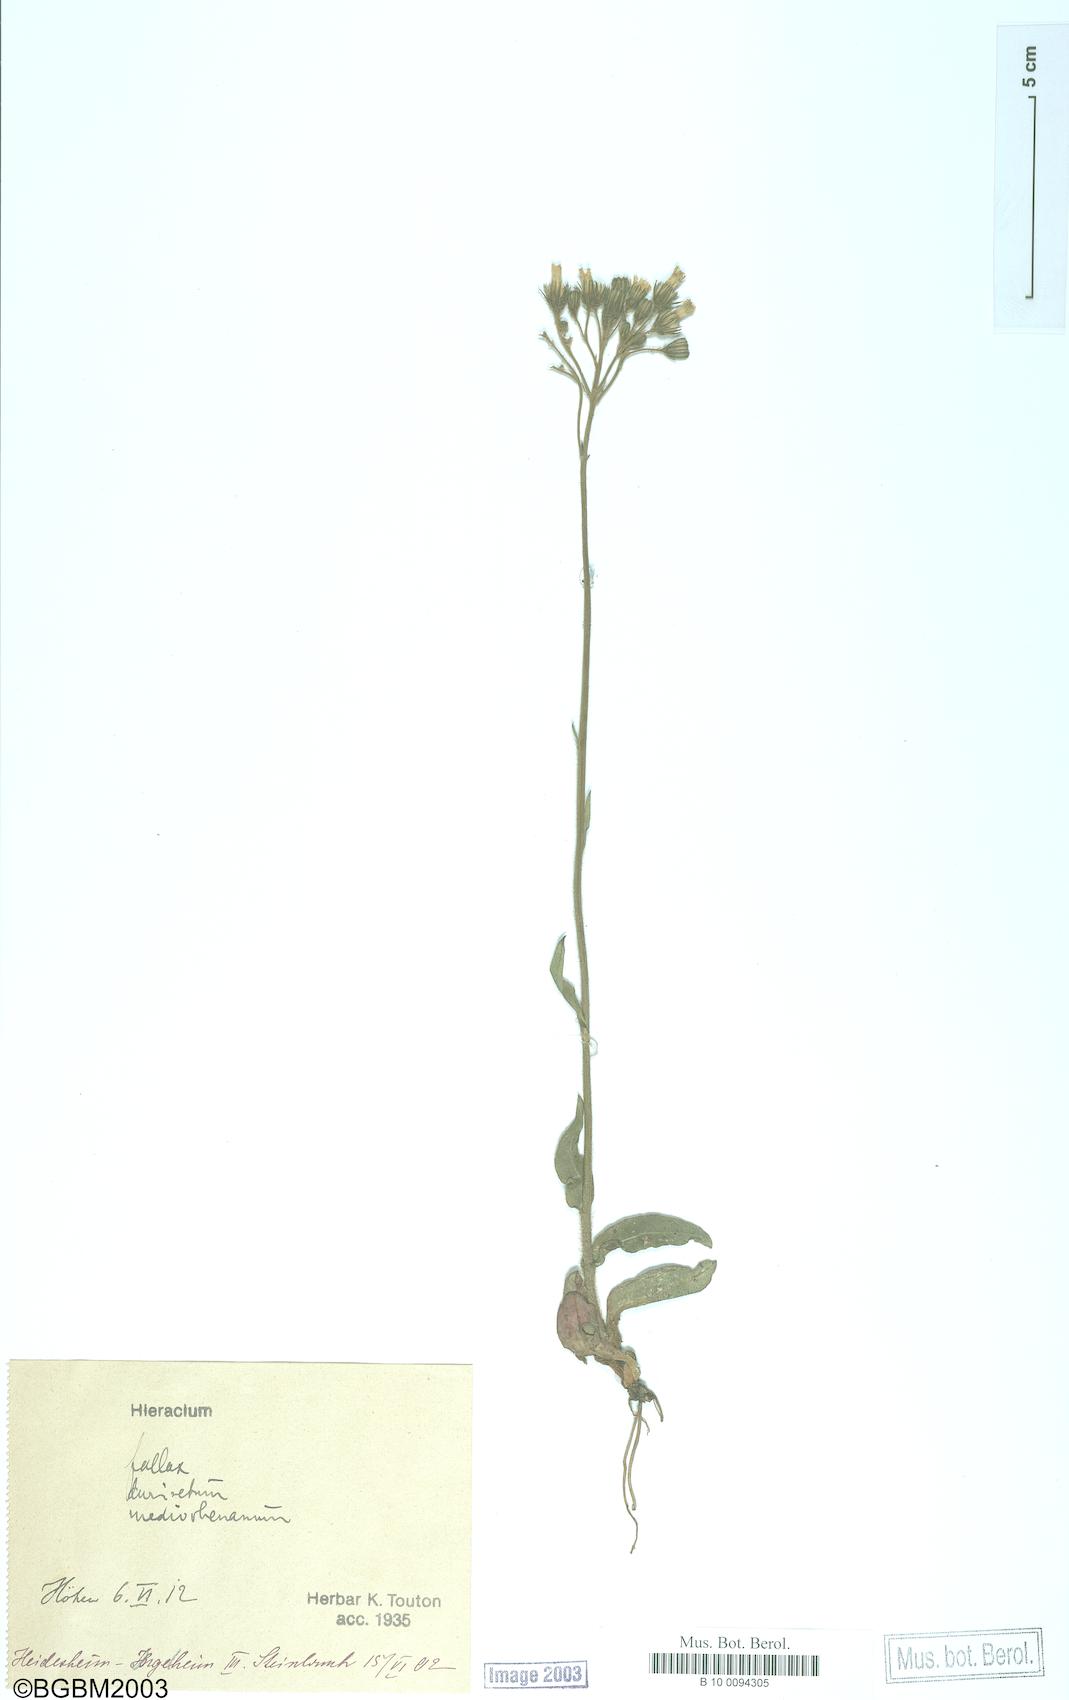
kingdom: Plantae
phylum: Tracheophyta
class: Magnoliopsida
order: Asterales
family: Asteraceae
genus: Hieracium
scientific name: Hieracium fallax
